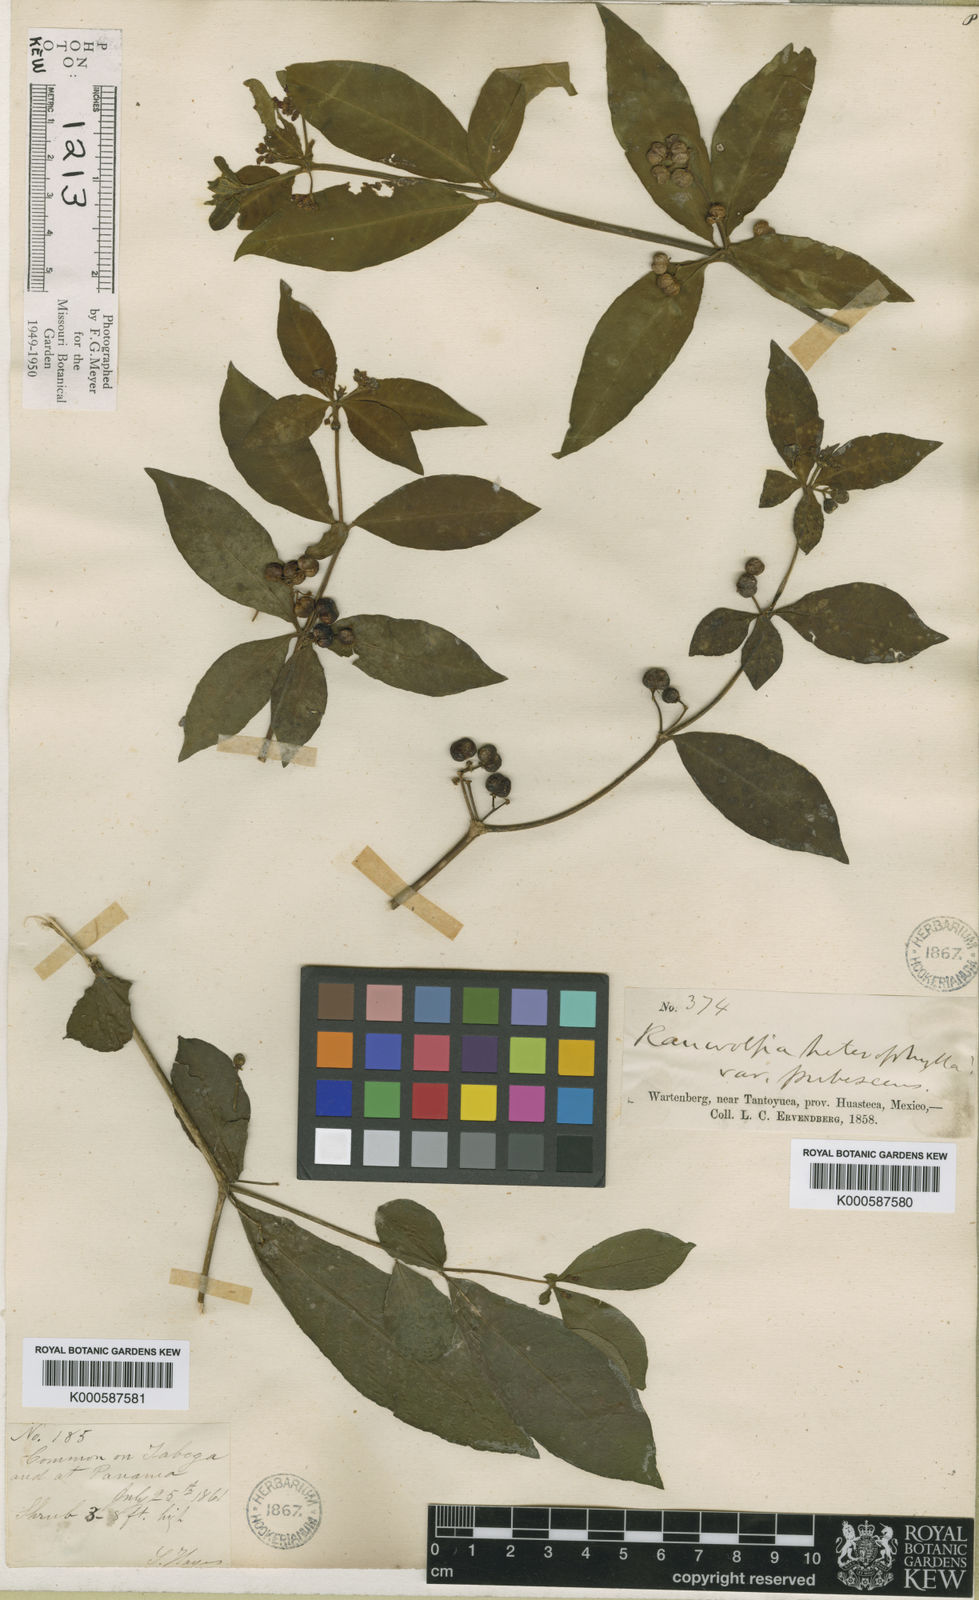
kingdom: Plantae
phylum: Tracheophyta
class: Magnoliopsida
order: Gentianales
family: Apocynaceae
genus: Rauvolfia
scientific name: Rauvolfia tetraphylla
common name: Four-leaf devil-pepper
